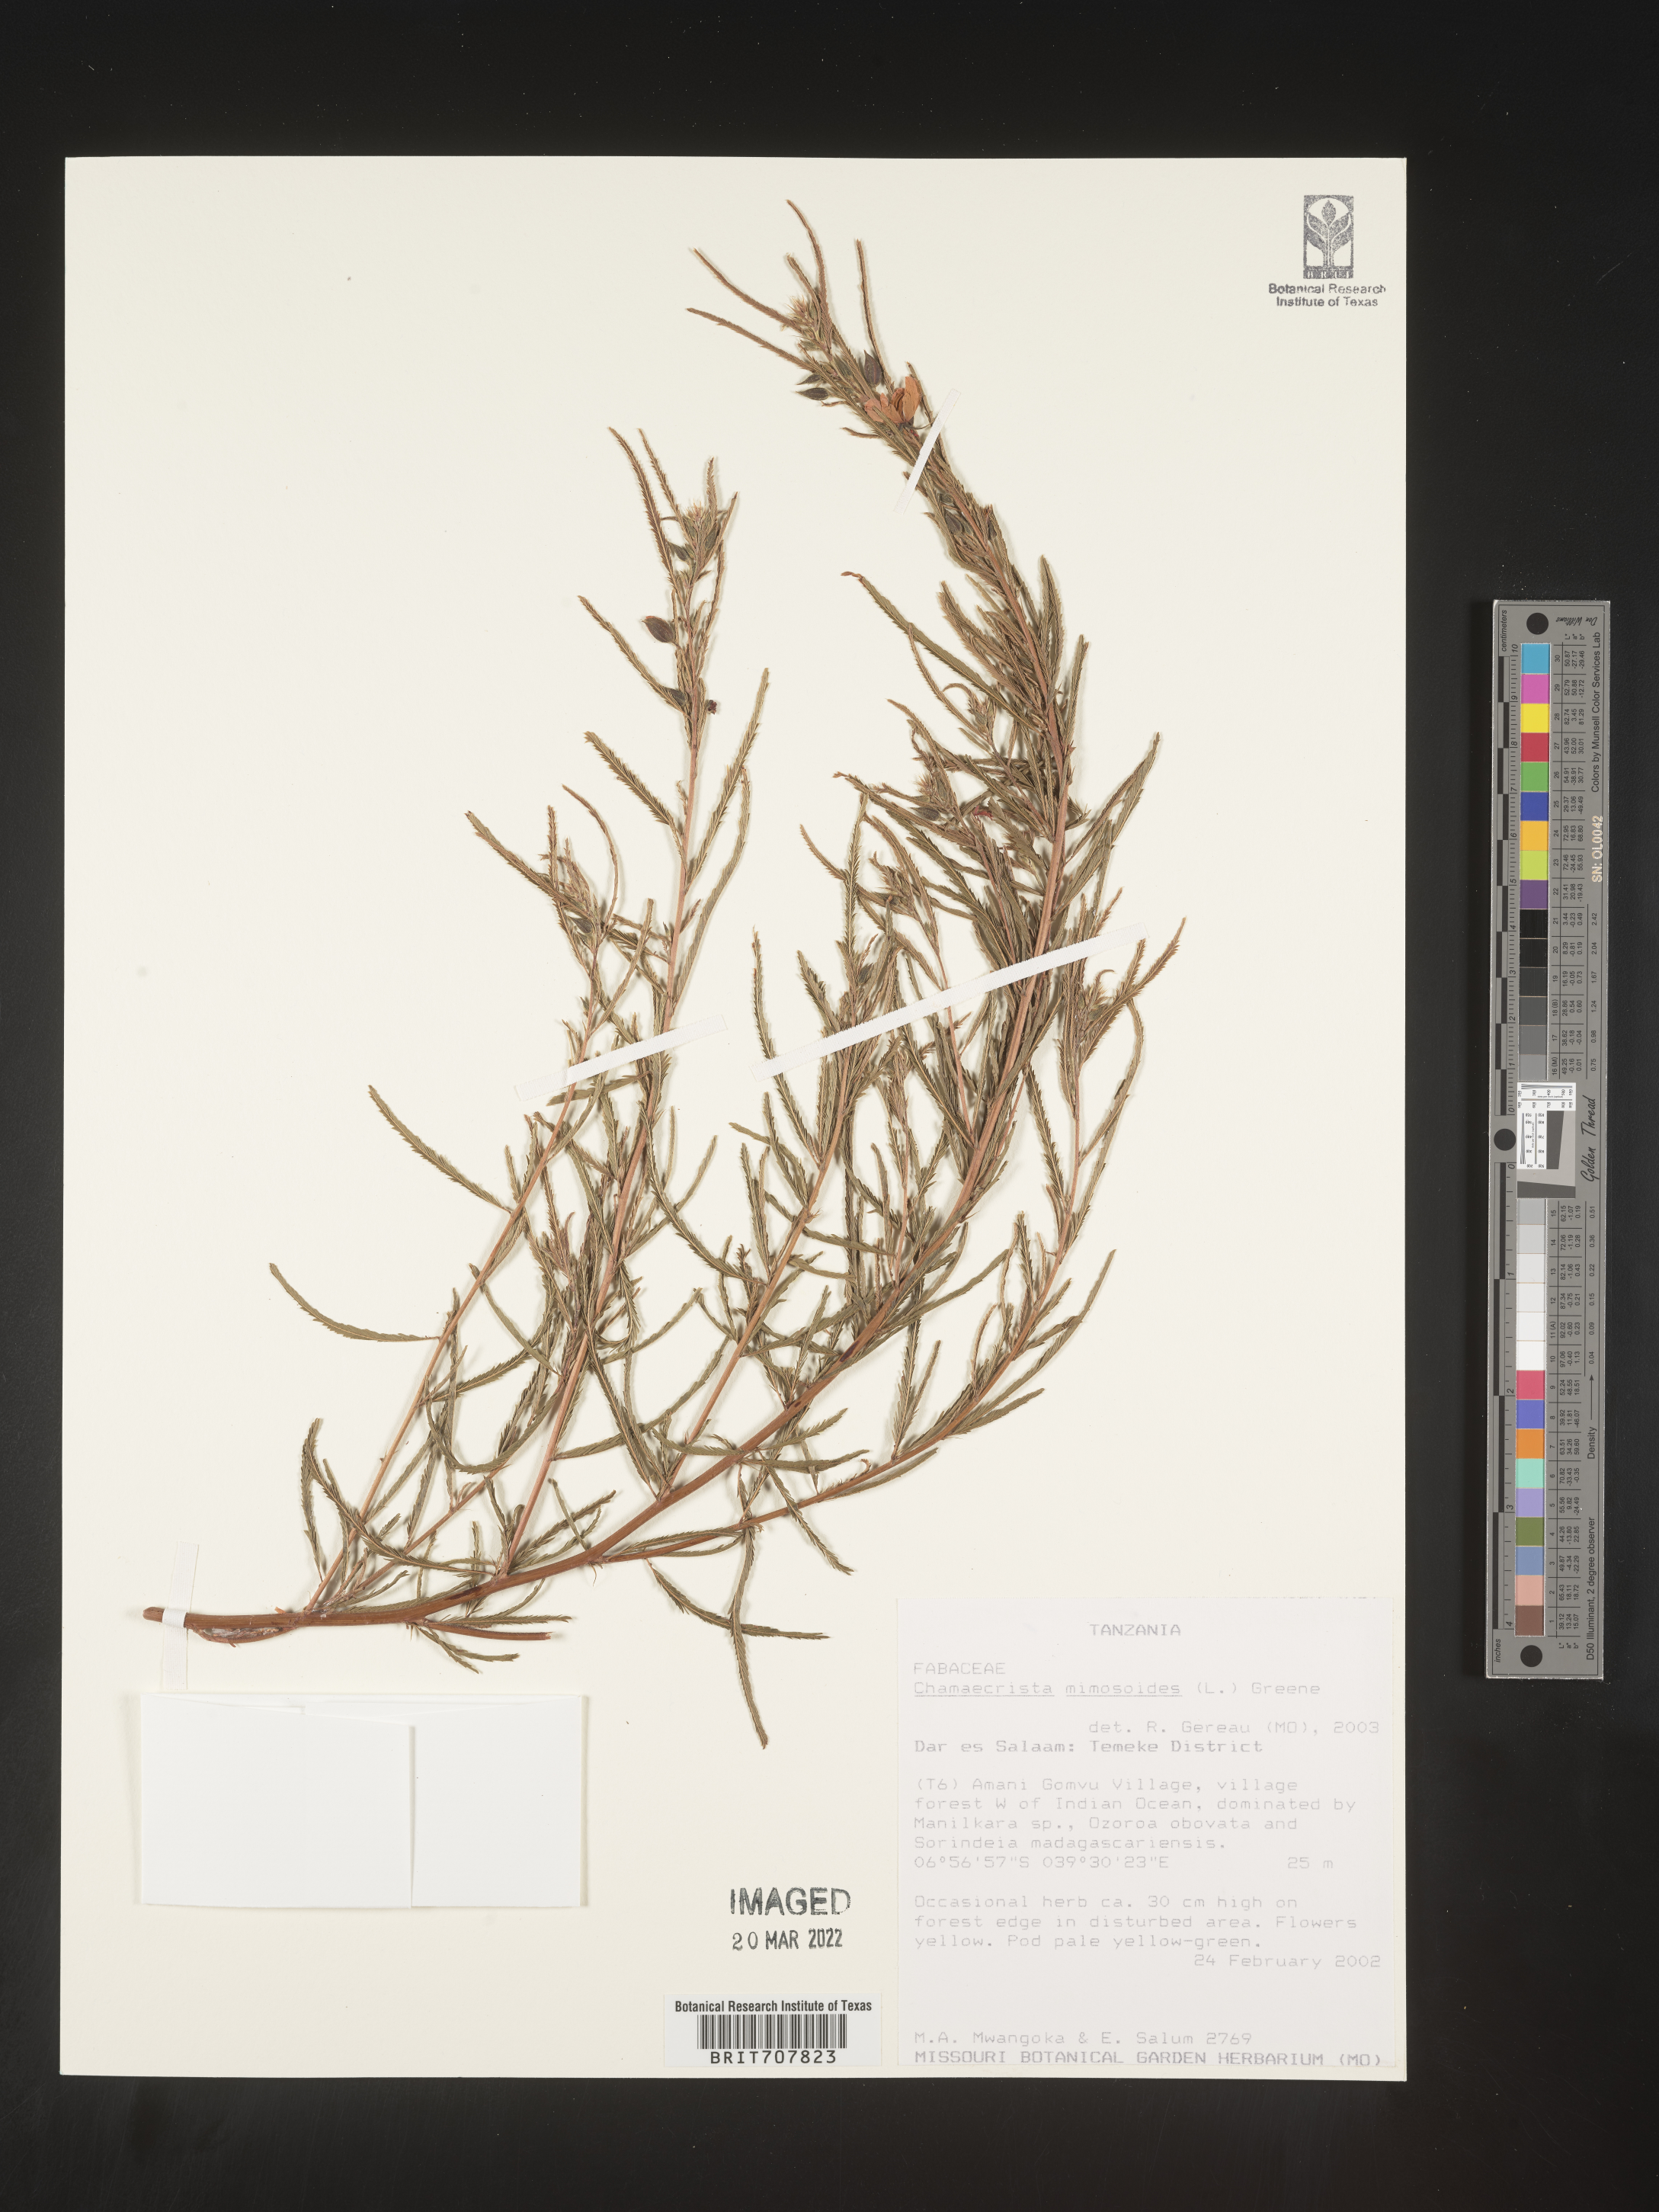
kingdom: Plantae
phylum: Tracheophyta
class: Magnoliopsida
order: Fabales
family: Fabaceae
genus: Chamaecrista
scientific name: Chamaecrista
